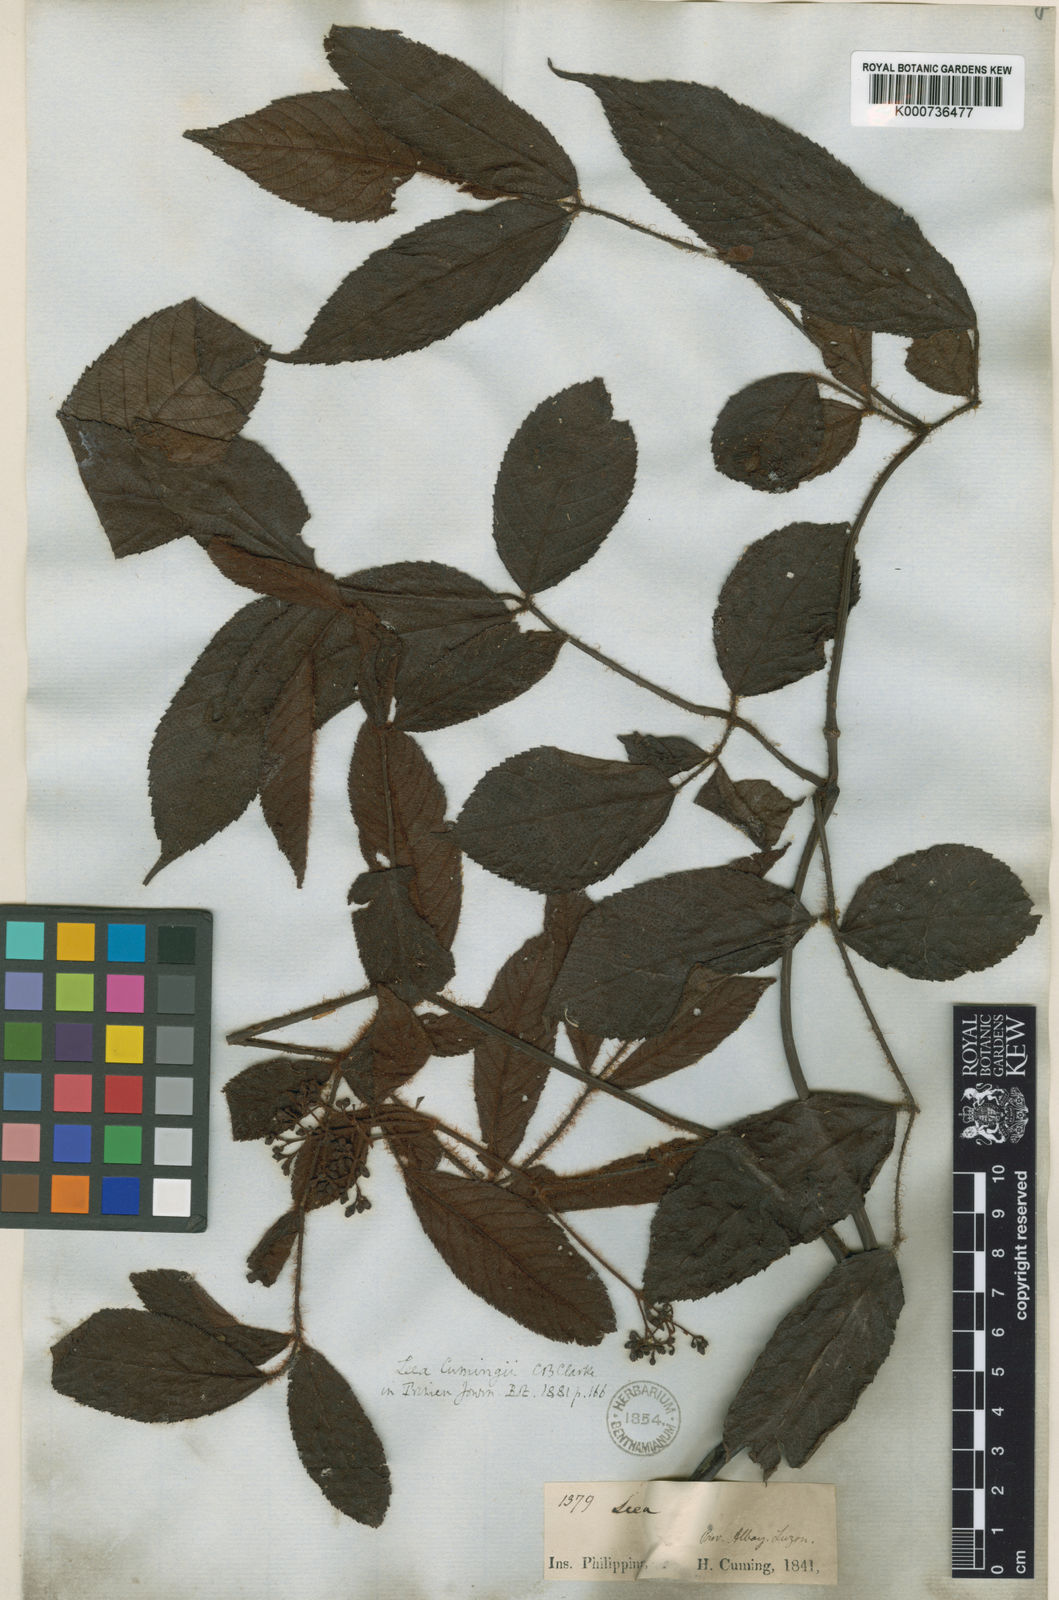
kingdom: Plantae
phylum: Tracheophyta
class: Magnoliopsida
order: Vitales
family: Vitaceae
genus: Leea
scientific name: Leea guineensis
